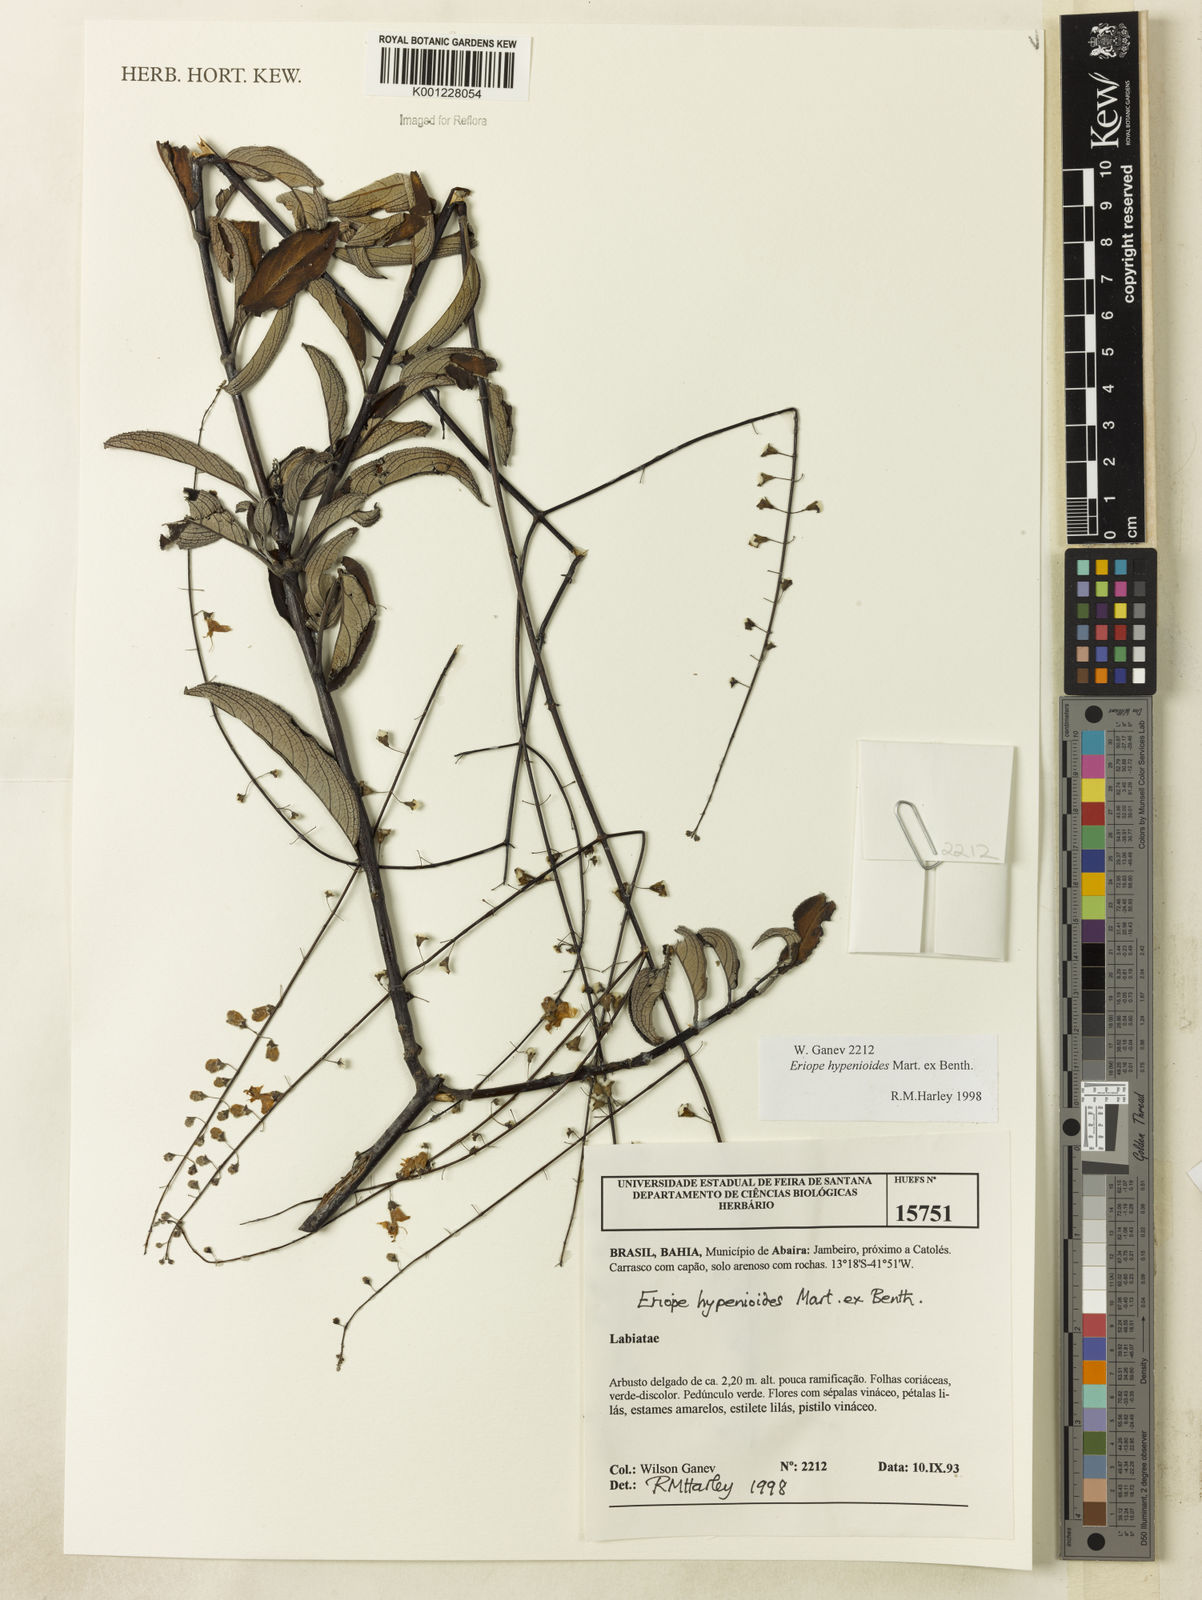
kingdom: Plantae
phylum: Tracheophyta
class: Magnoliopsida
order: Lamiales
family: Lamiaceae
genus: Eriope
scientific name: Eriope hypenioides
